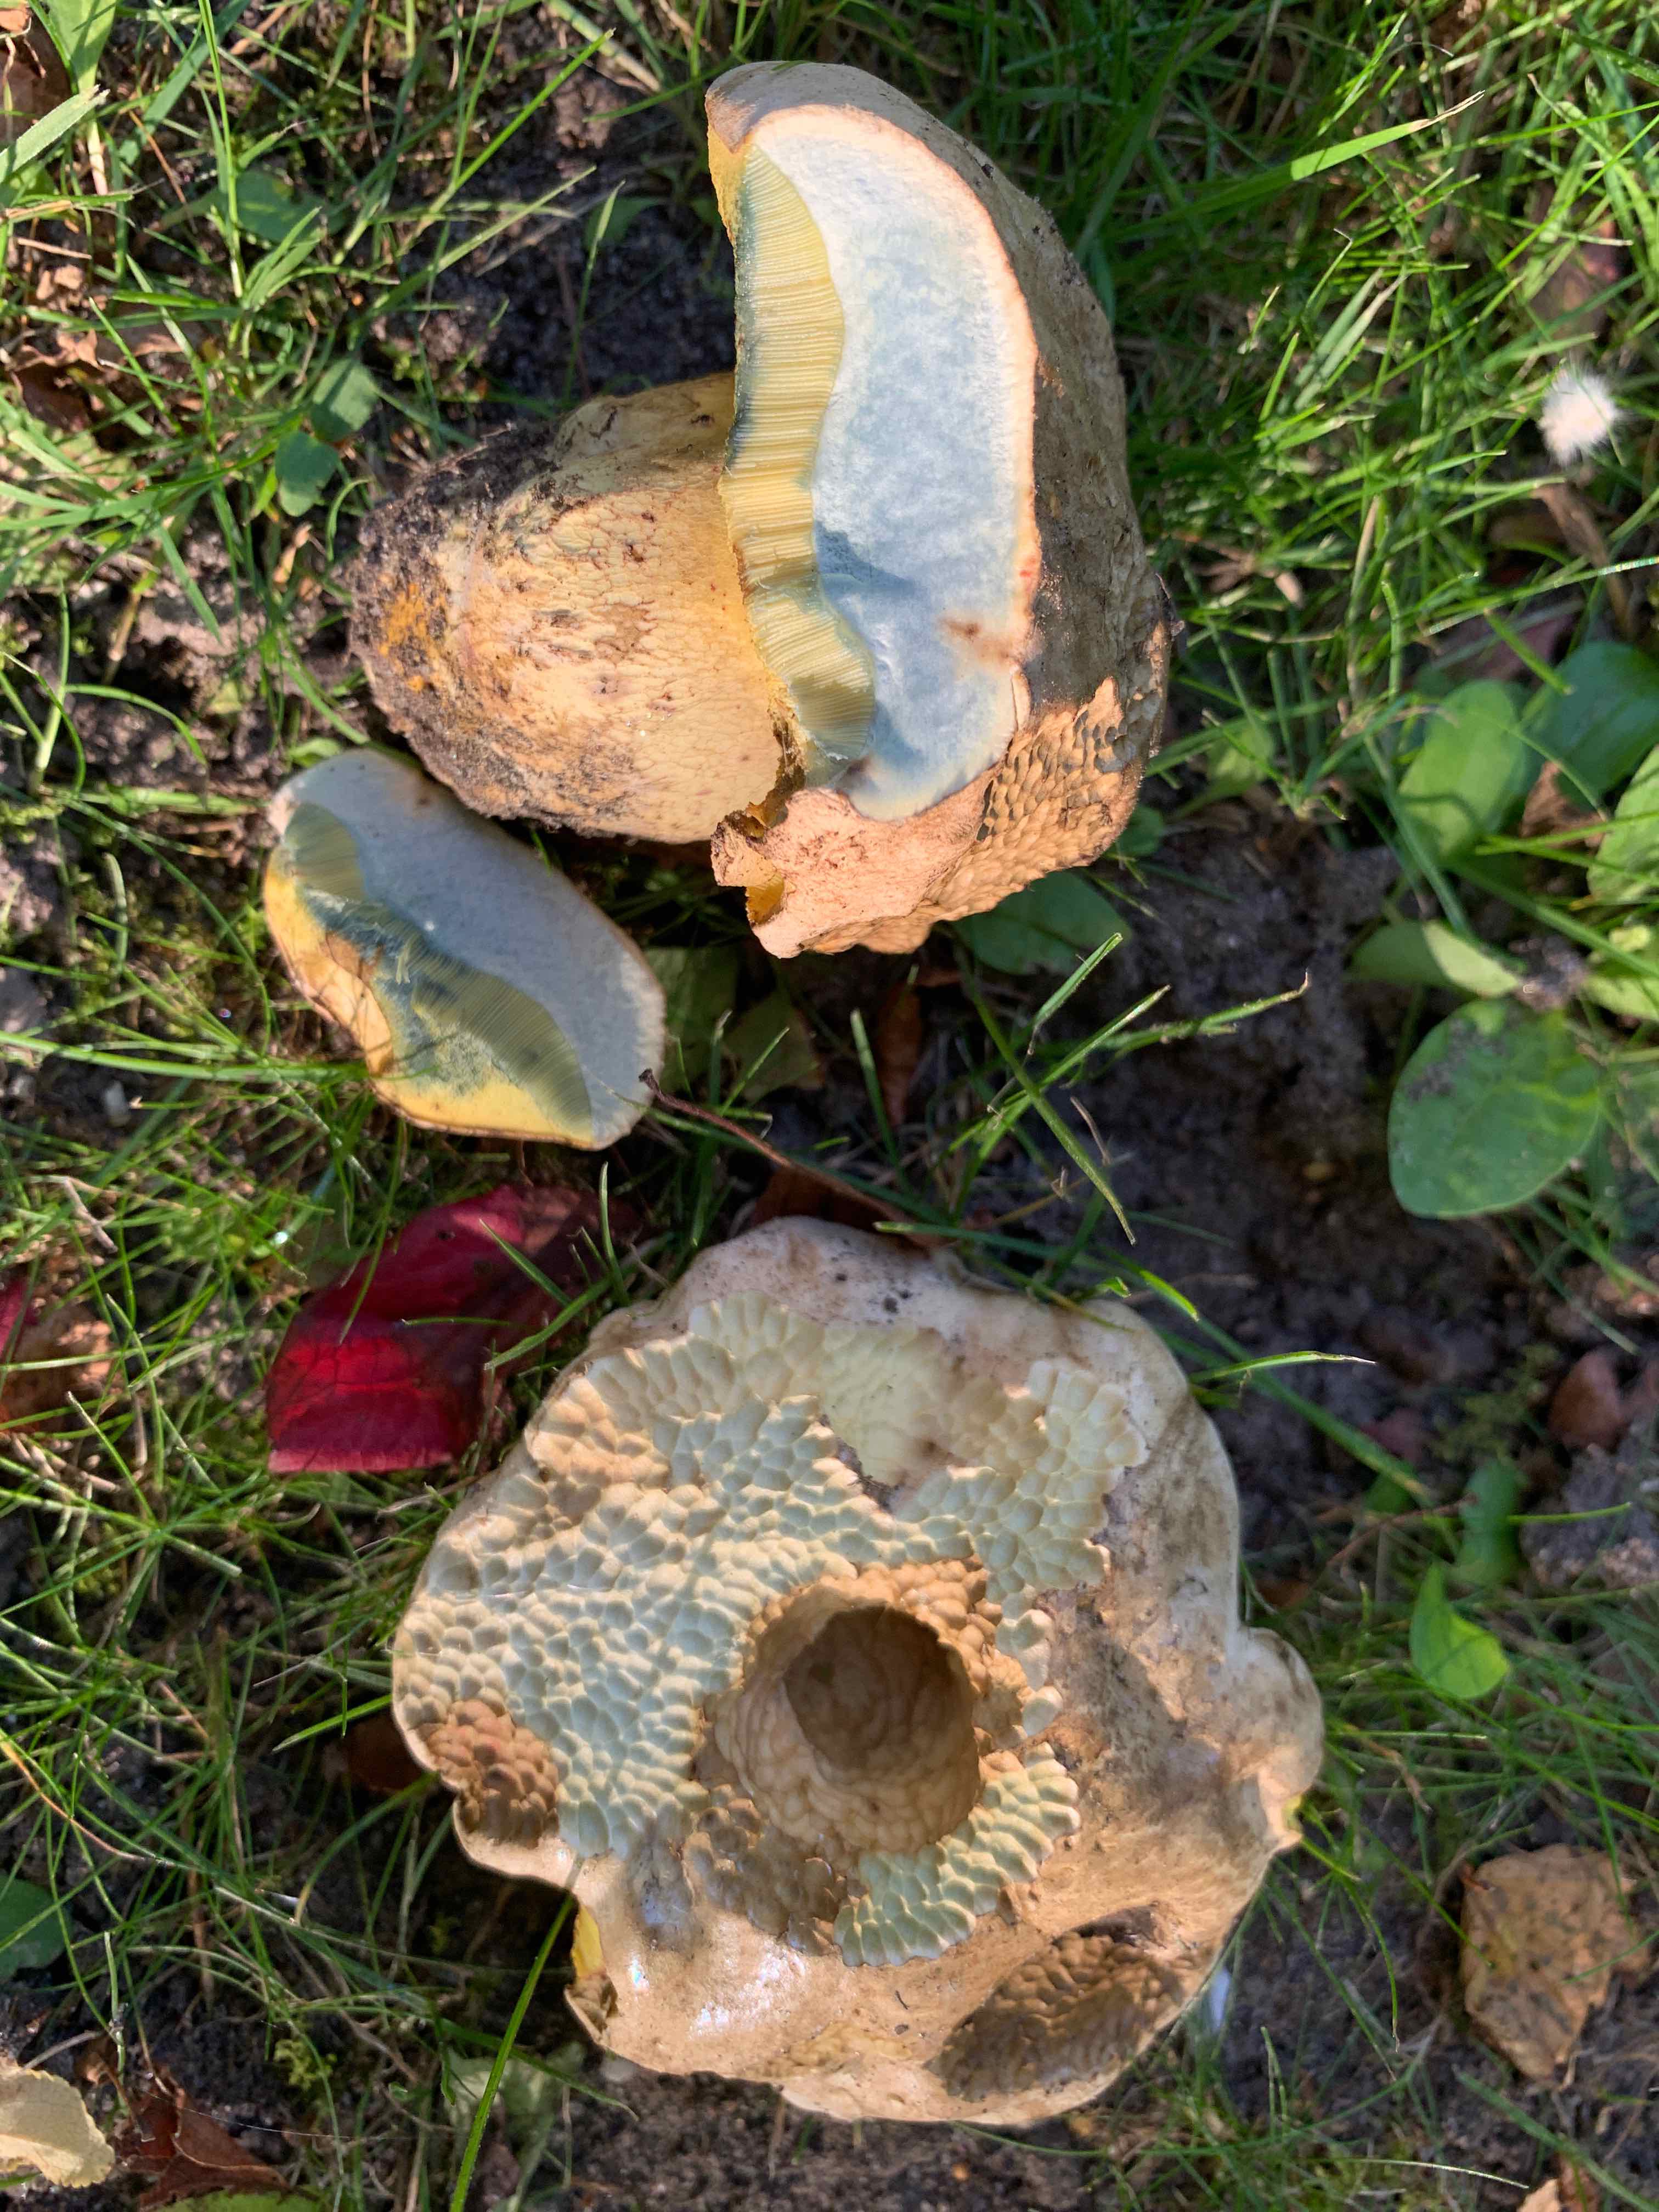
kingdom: Fungi
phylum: Basidiomycota
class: Agaricomycetes
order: Boletales
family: Boletaceae
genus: Caloboletus
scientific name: Caloboletus radicans
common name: rod-rørhat
